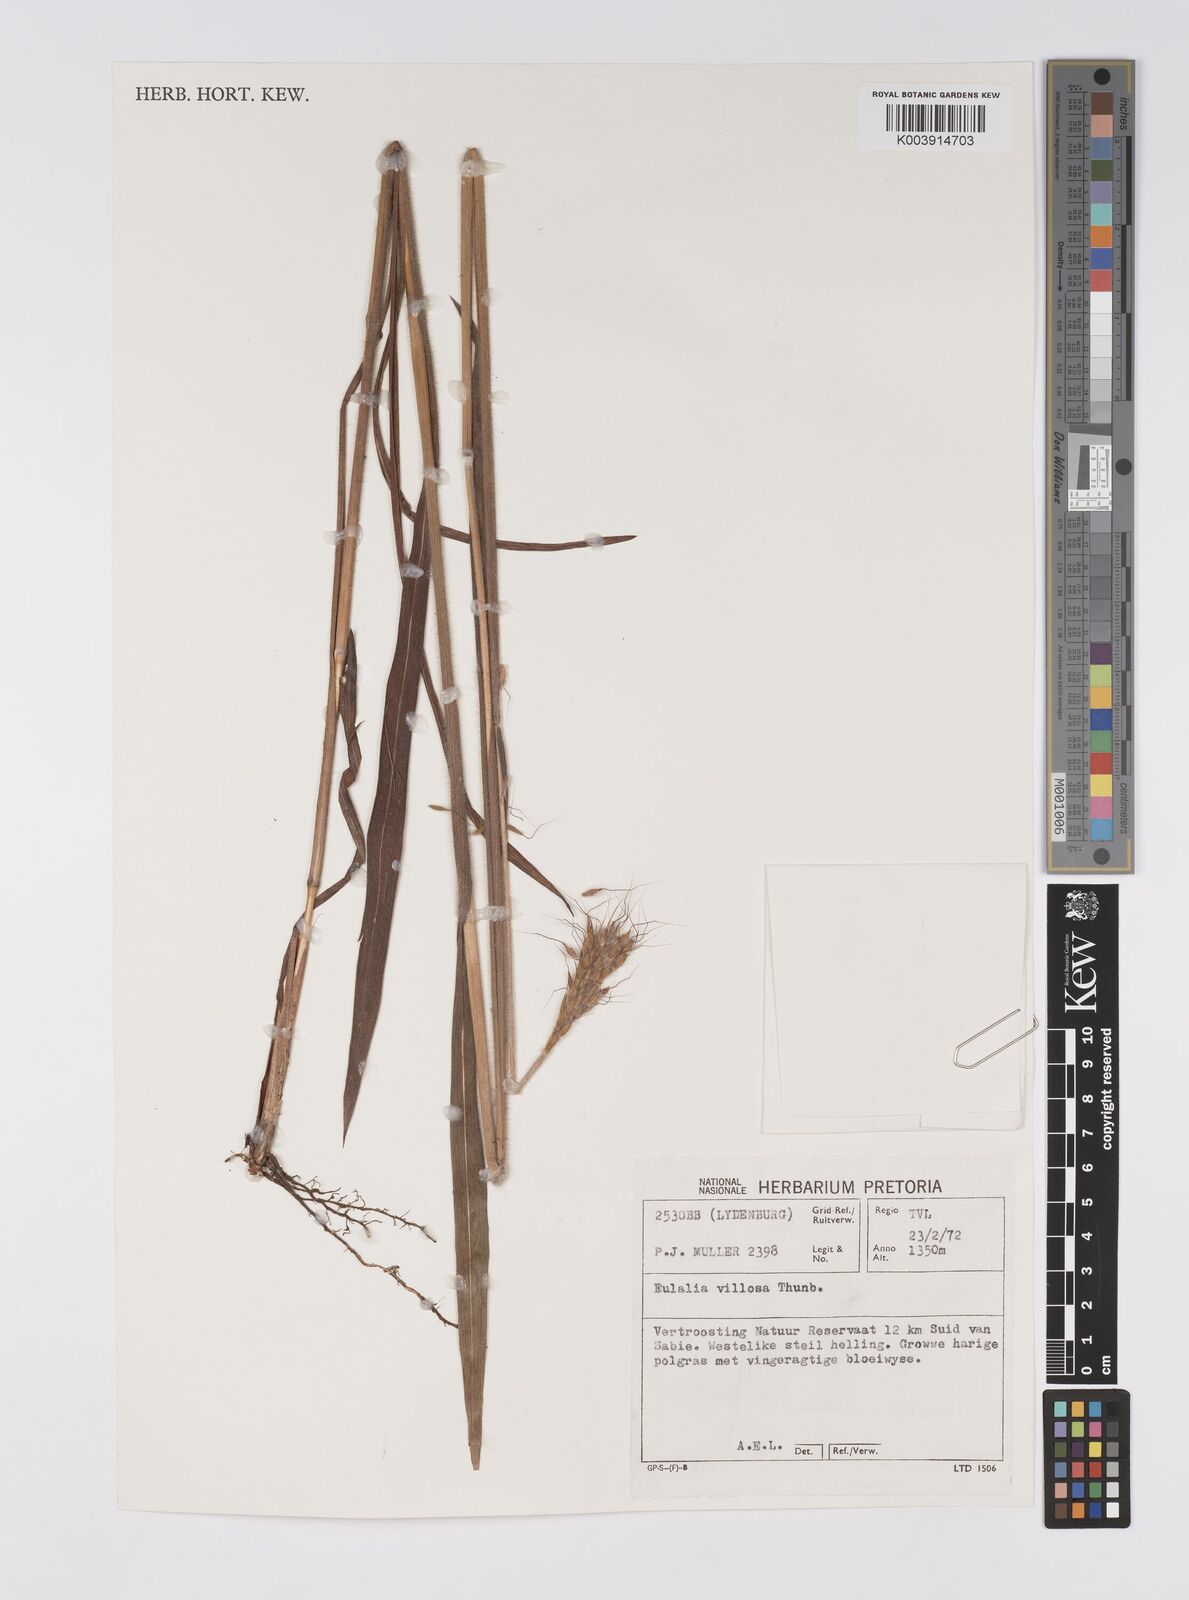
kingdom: Plantae
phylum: Tracheophyta
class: Liliopsida
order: Poales
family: Poaceae
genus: Eulalia
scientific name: Eulalia villosa
